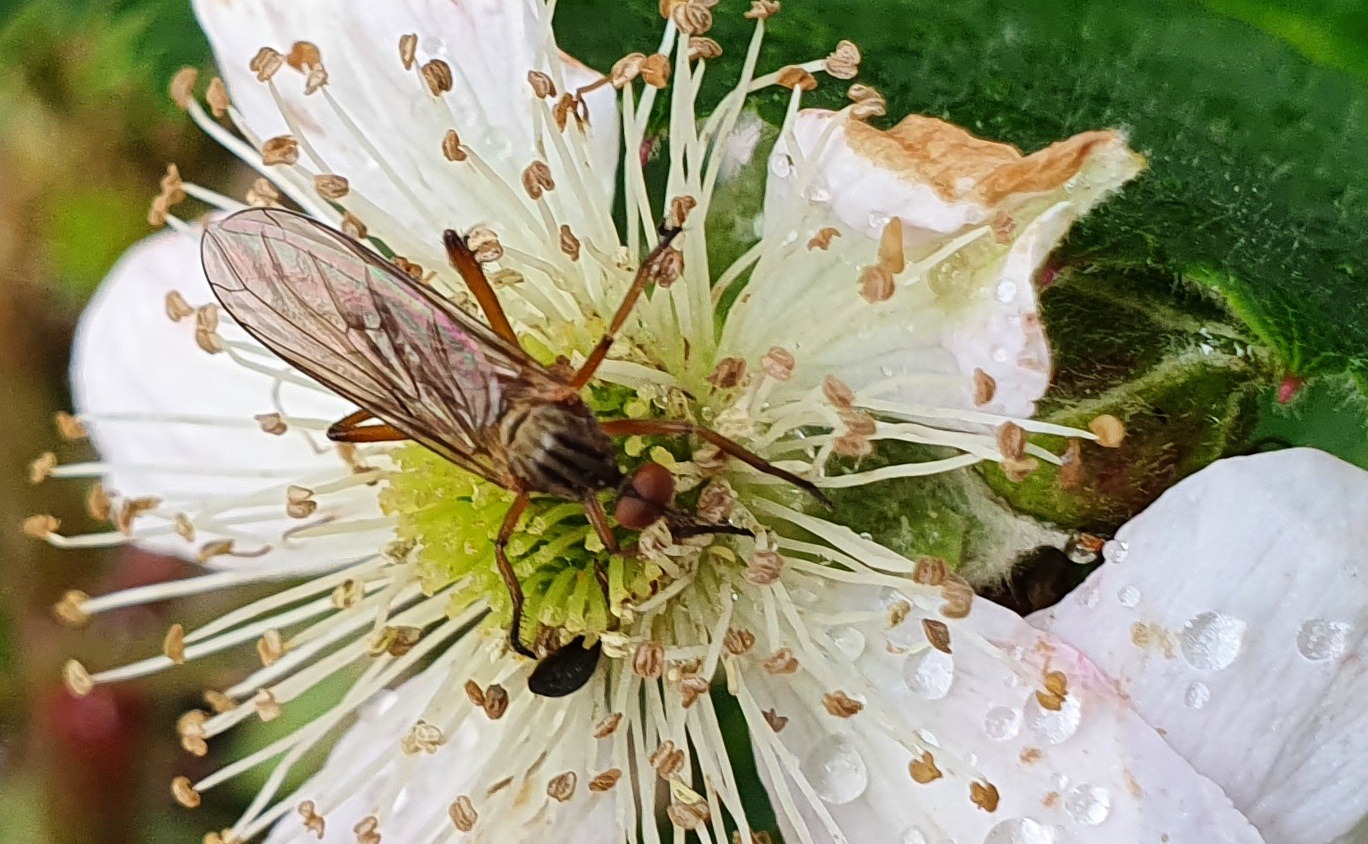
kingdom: Animalia
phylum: Arthropoda
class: Insecta
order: Diptera
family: Empididae
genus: Empis
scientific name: Empis livida
